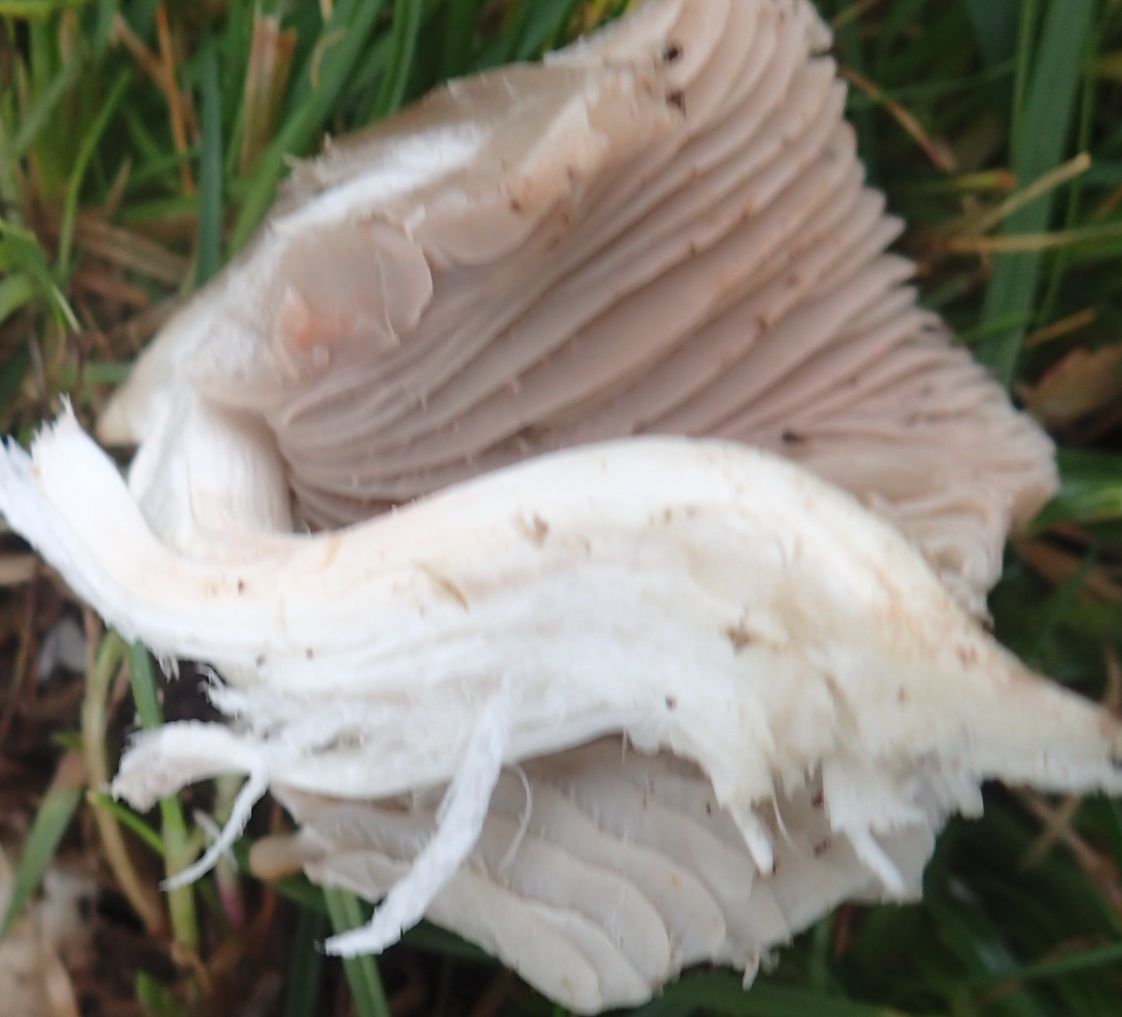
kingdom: Fungi
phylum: Basidiomycota
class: Agaricomycetes
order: Agaricales
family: Entolomataceae
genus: Entoloma
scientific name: Entoloma prunuloides
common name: mel-rødblad
